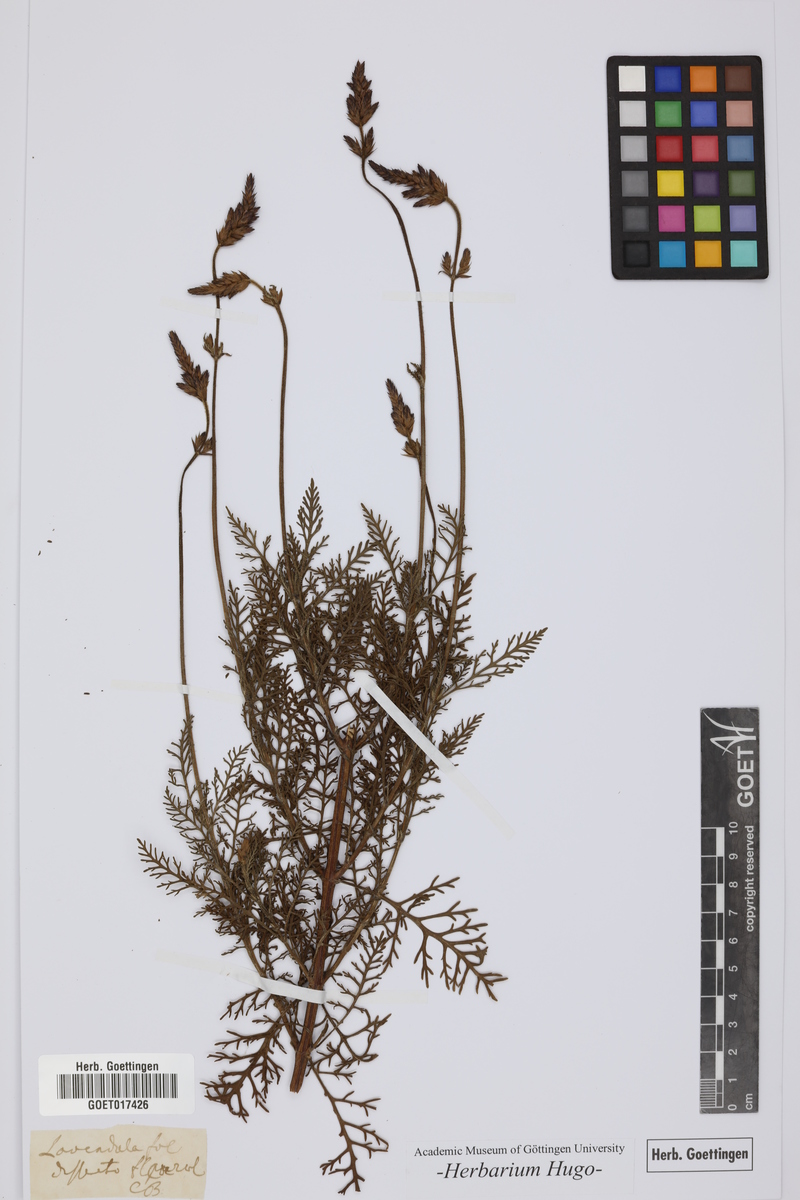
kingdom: Plantae
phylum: Tracheophyta
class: Magnoliopsida
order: Lamiales
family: Lamiaceae
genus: Lavandula
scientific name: Lavandula multifida
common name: Fern-leaf lavender
